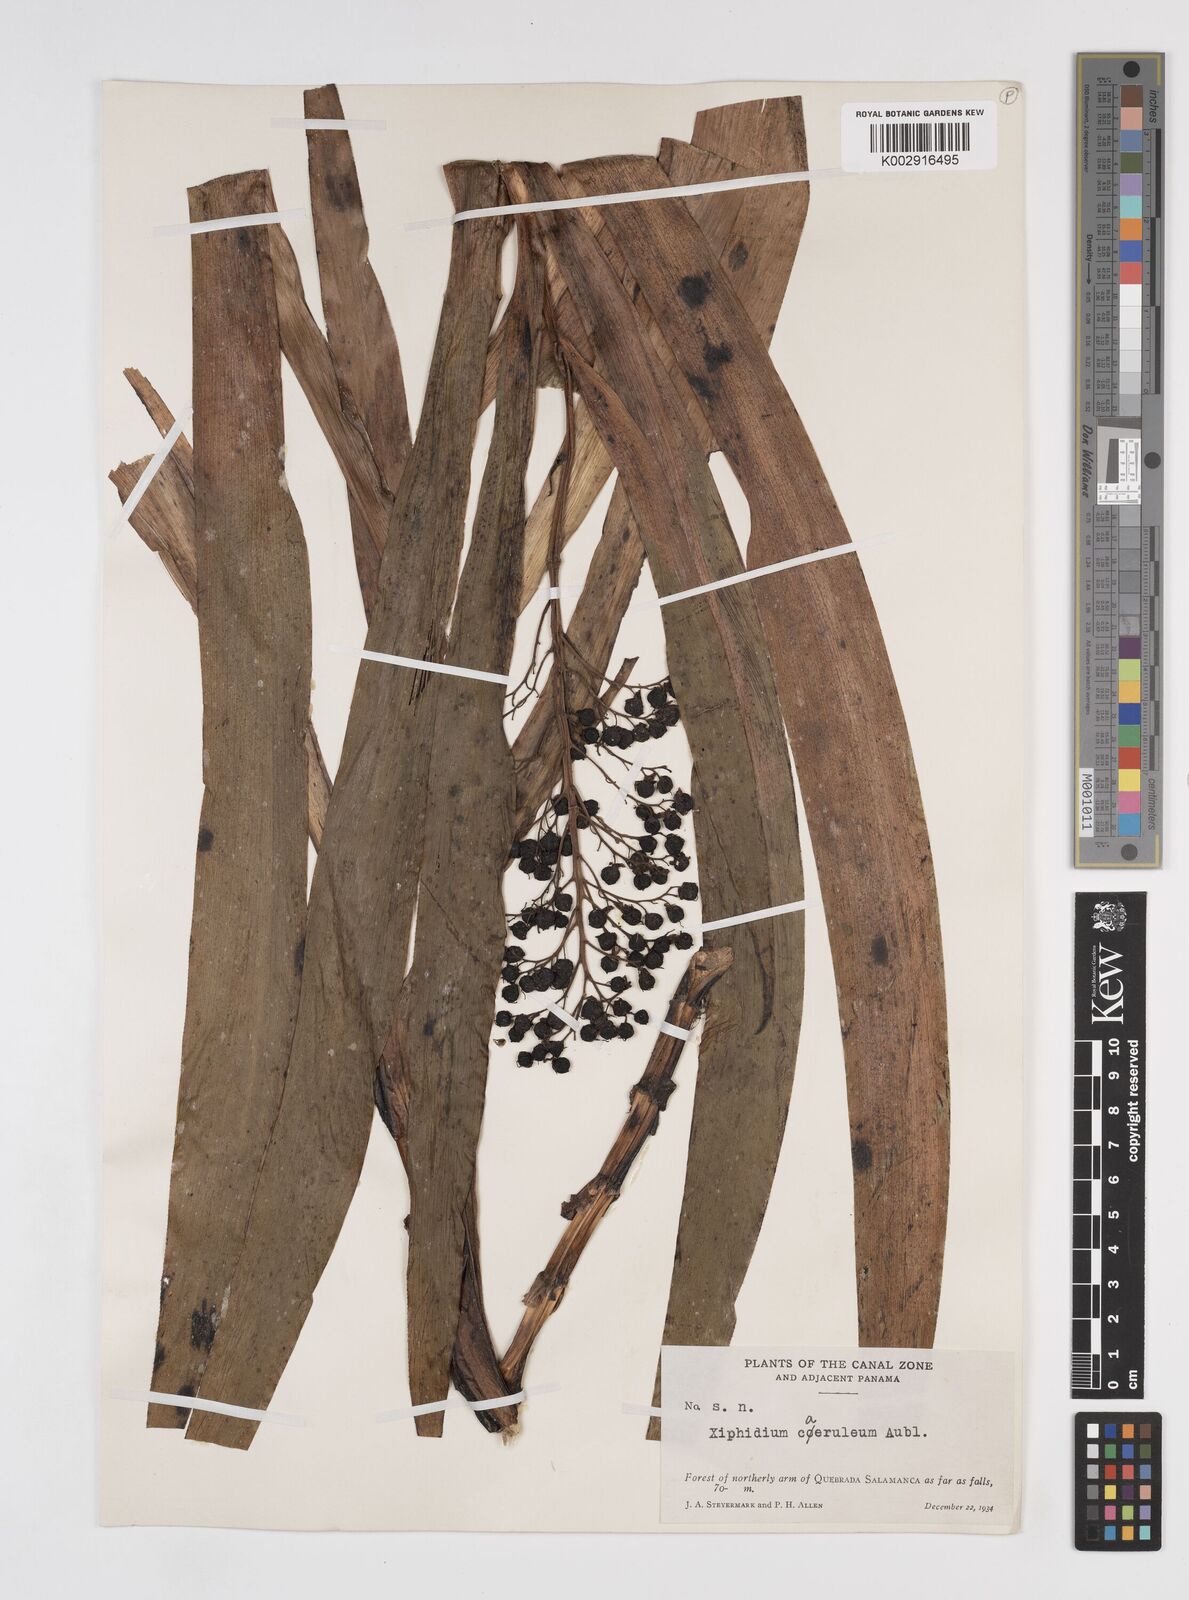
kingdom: Plantae
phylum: Tracheophyta
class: Liliopsida
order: Commelinales
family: Haemodoraceae
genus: Xiphidium
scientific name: Xiphidium caeruleum
